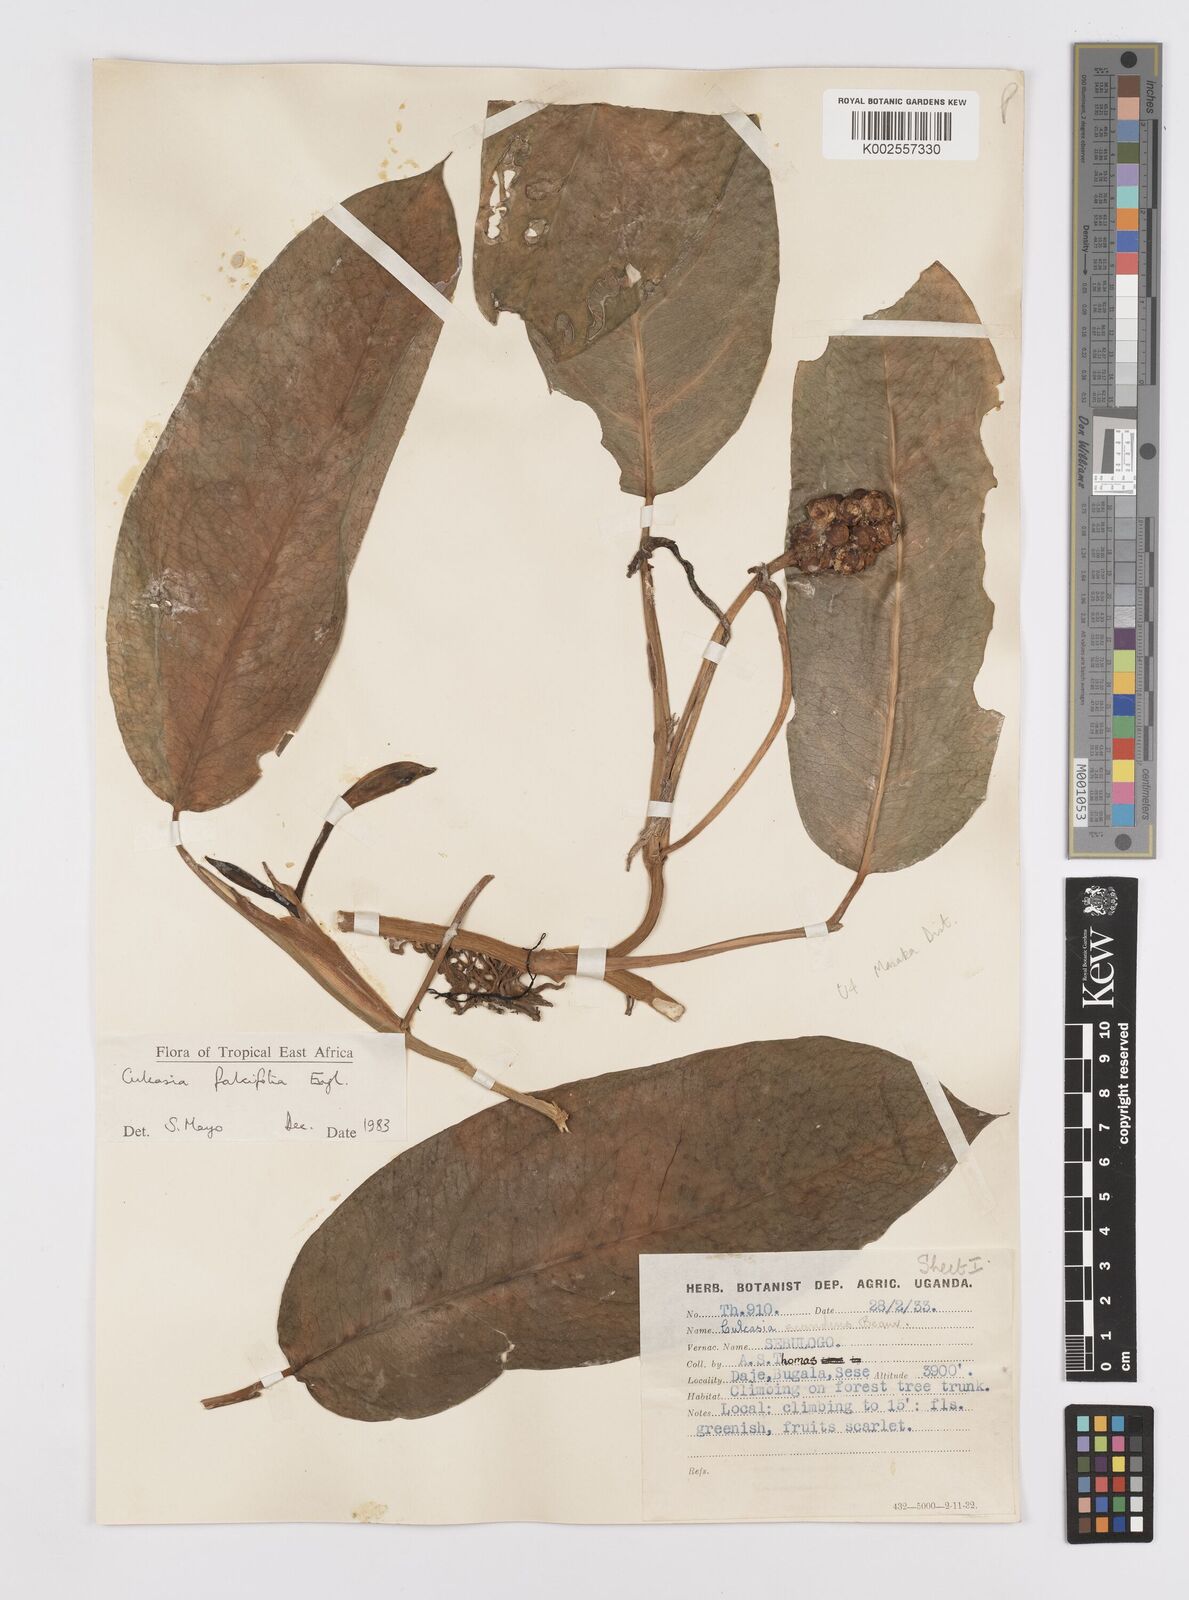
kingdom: Plantae
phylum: Tracheophyta
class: Liliopsida
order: Alismatales
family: Araceae
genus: Culcasia
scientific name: Culcasia falcifolia
